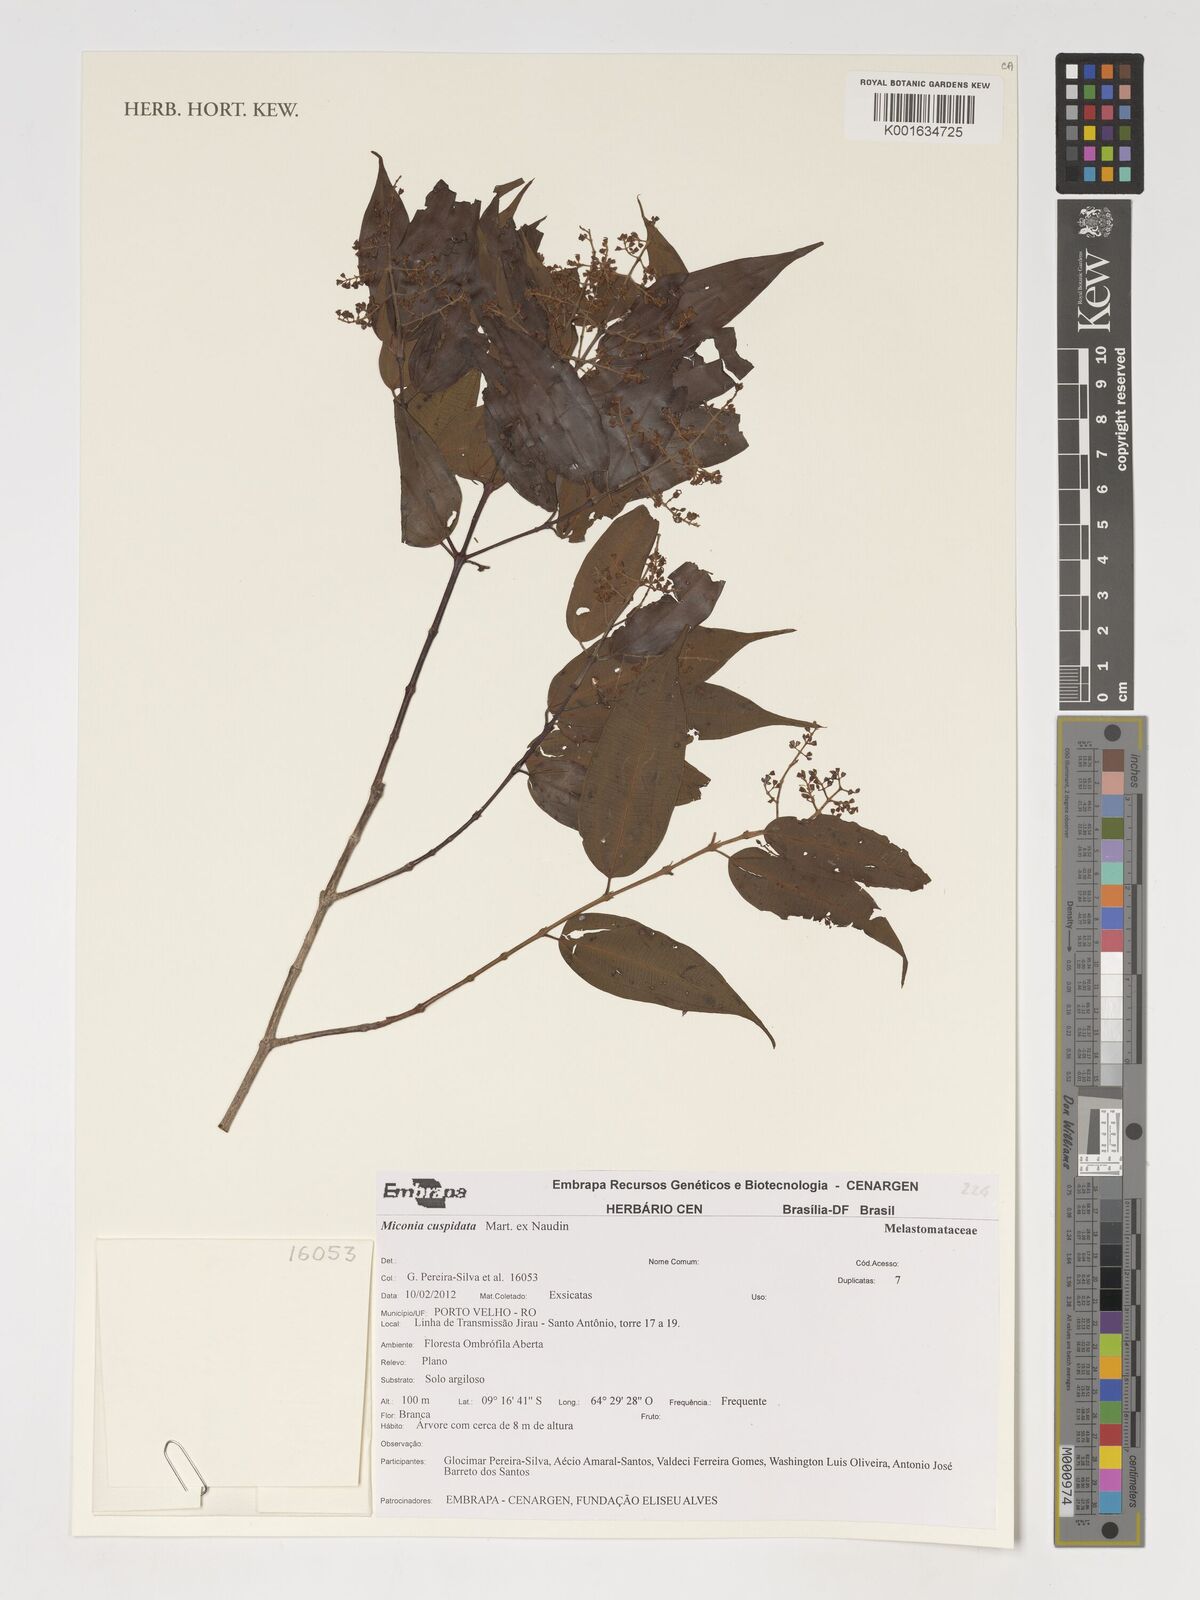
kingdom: Plantae
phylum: Tracheophyta
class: Magnoliopsida
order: Myrtales
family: Melastomataceae
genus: Miconia
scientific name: Miconia cuspidata
